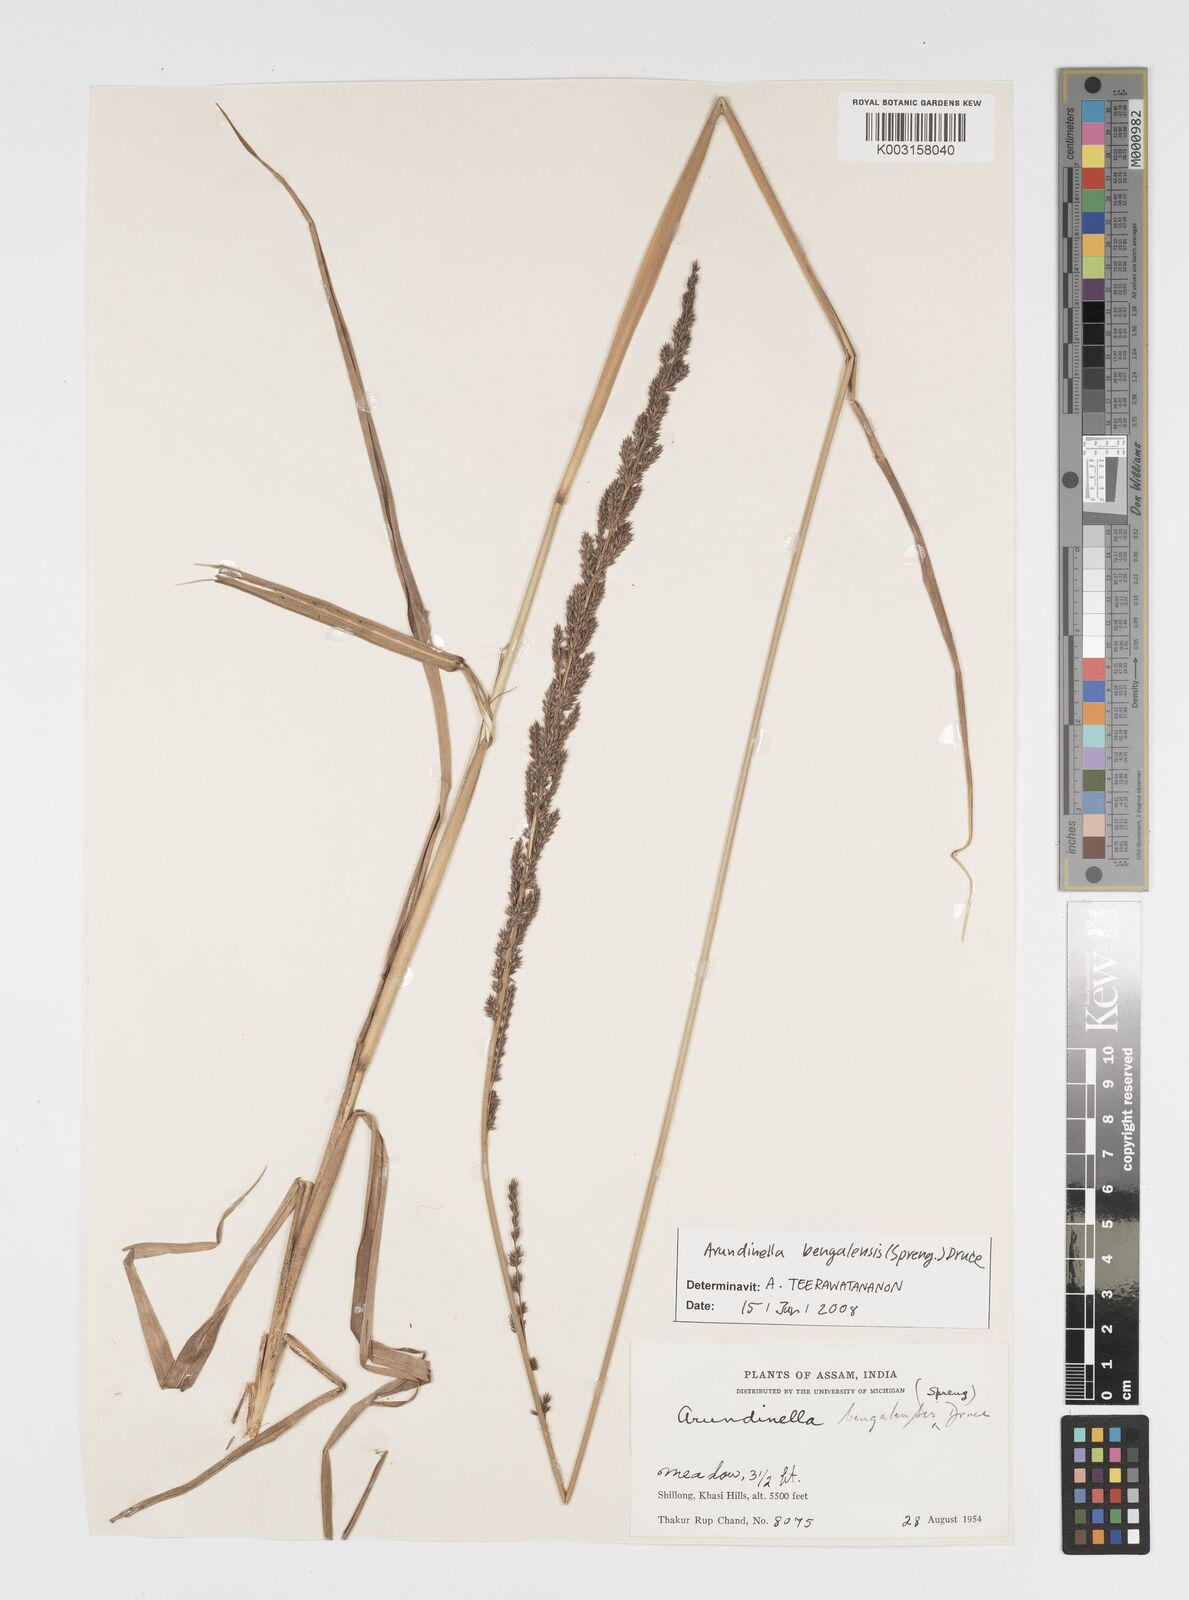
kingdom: Plantae
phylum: Tracheophyta
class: Liliopsida
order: Poales
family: Poaceae
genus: Arundinella
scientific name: Arundinella bengalensis
